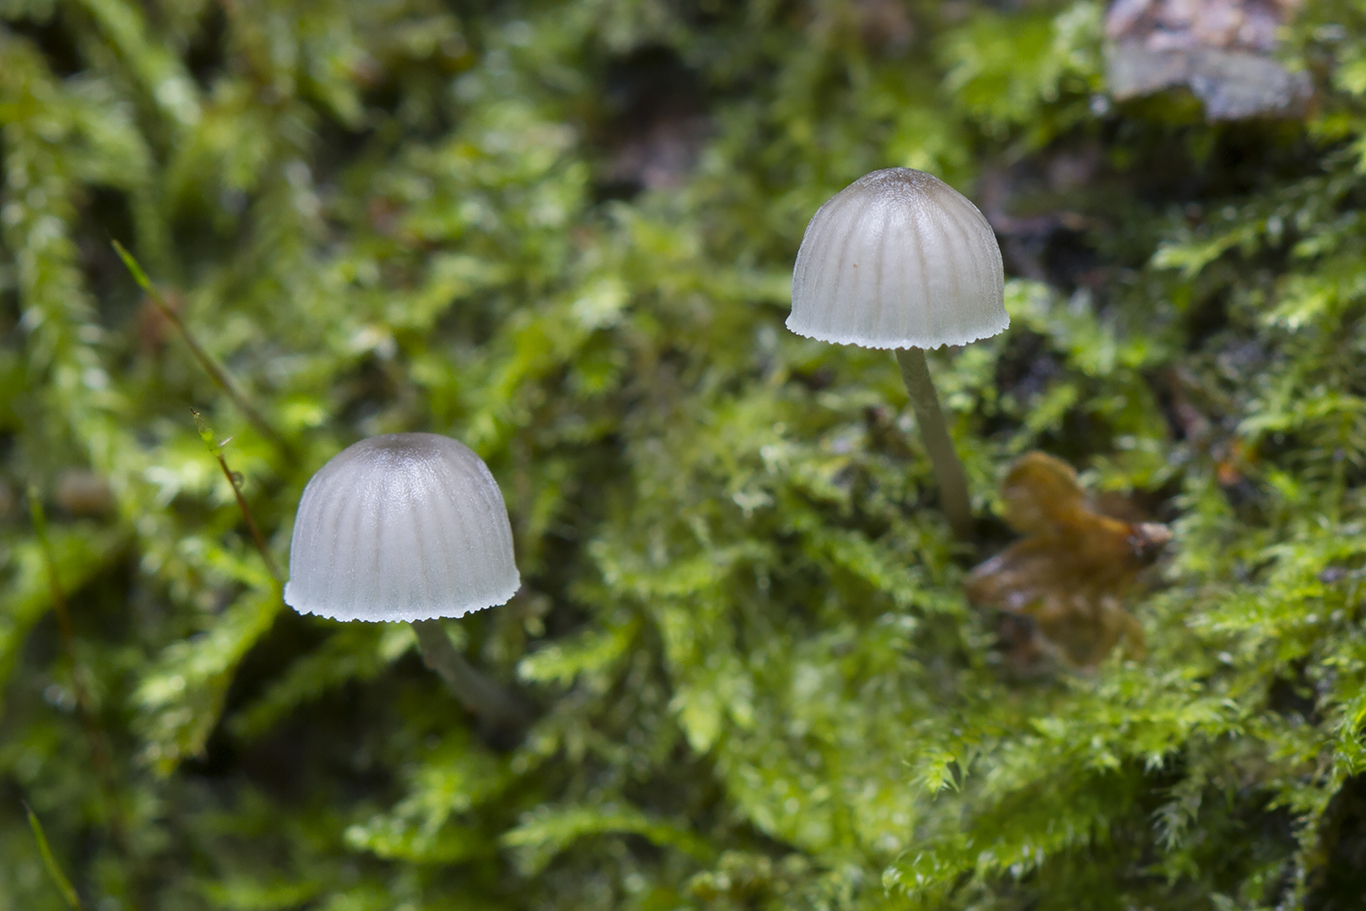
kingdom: Fungi
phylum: Basidiomycota
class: Agaricomycetes
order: Agaricales
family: Mycenaceae
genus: Mycena
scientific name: Mycena pseudocorticola
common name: gråblå bark-huesvamp
